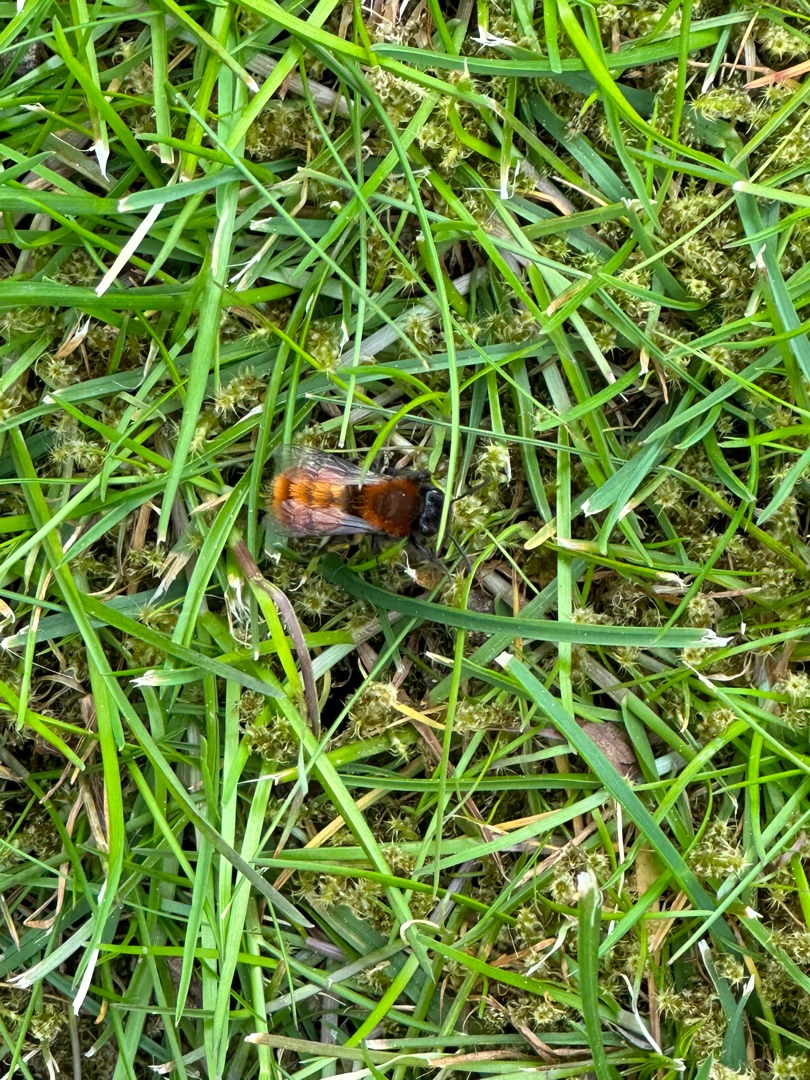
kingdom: Animalia
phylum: Arthropoda
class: Insecta
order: Hymenoptera
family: Andrenidae
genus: Andrena
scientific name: Andrena fulva
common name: Rødpelset jordbi
